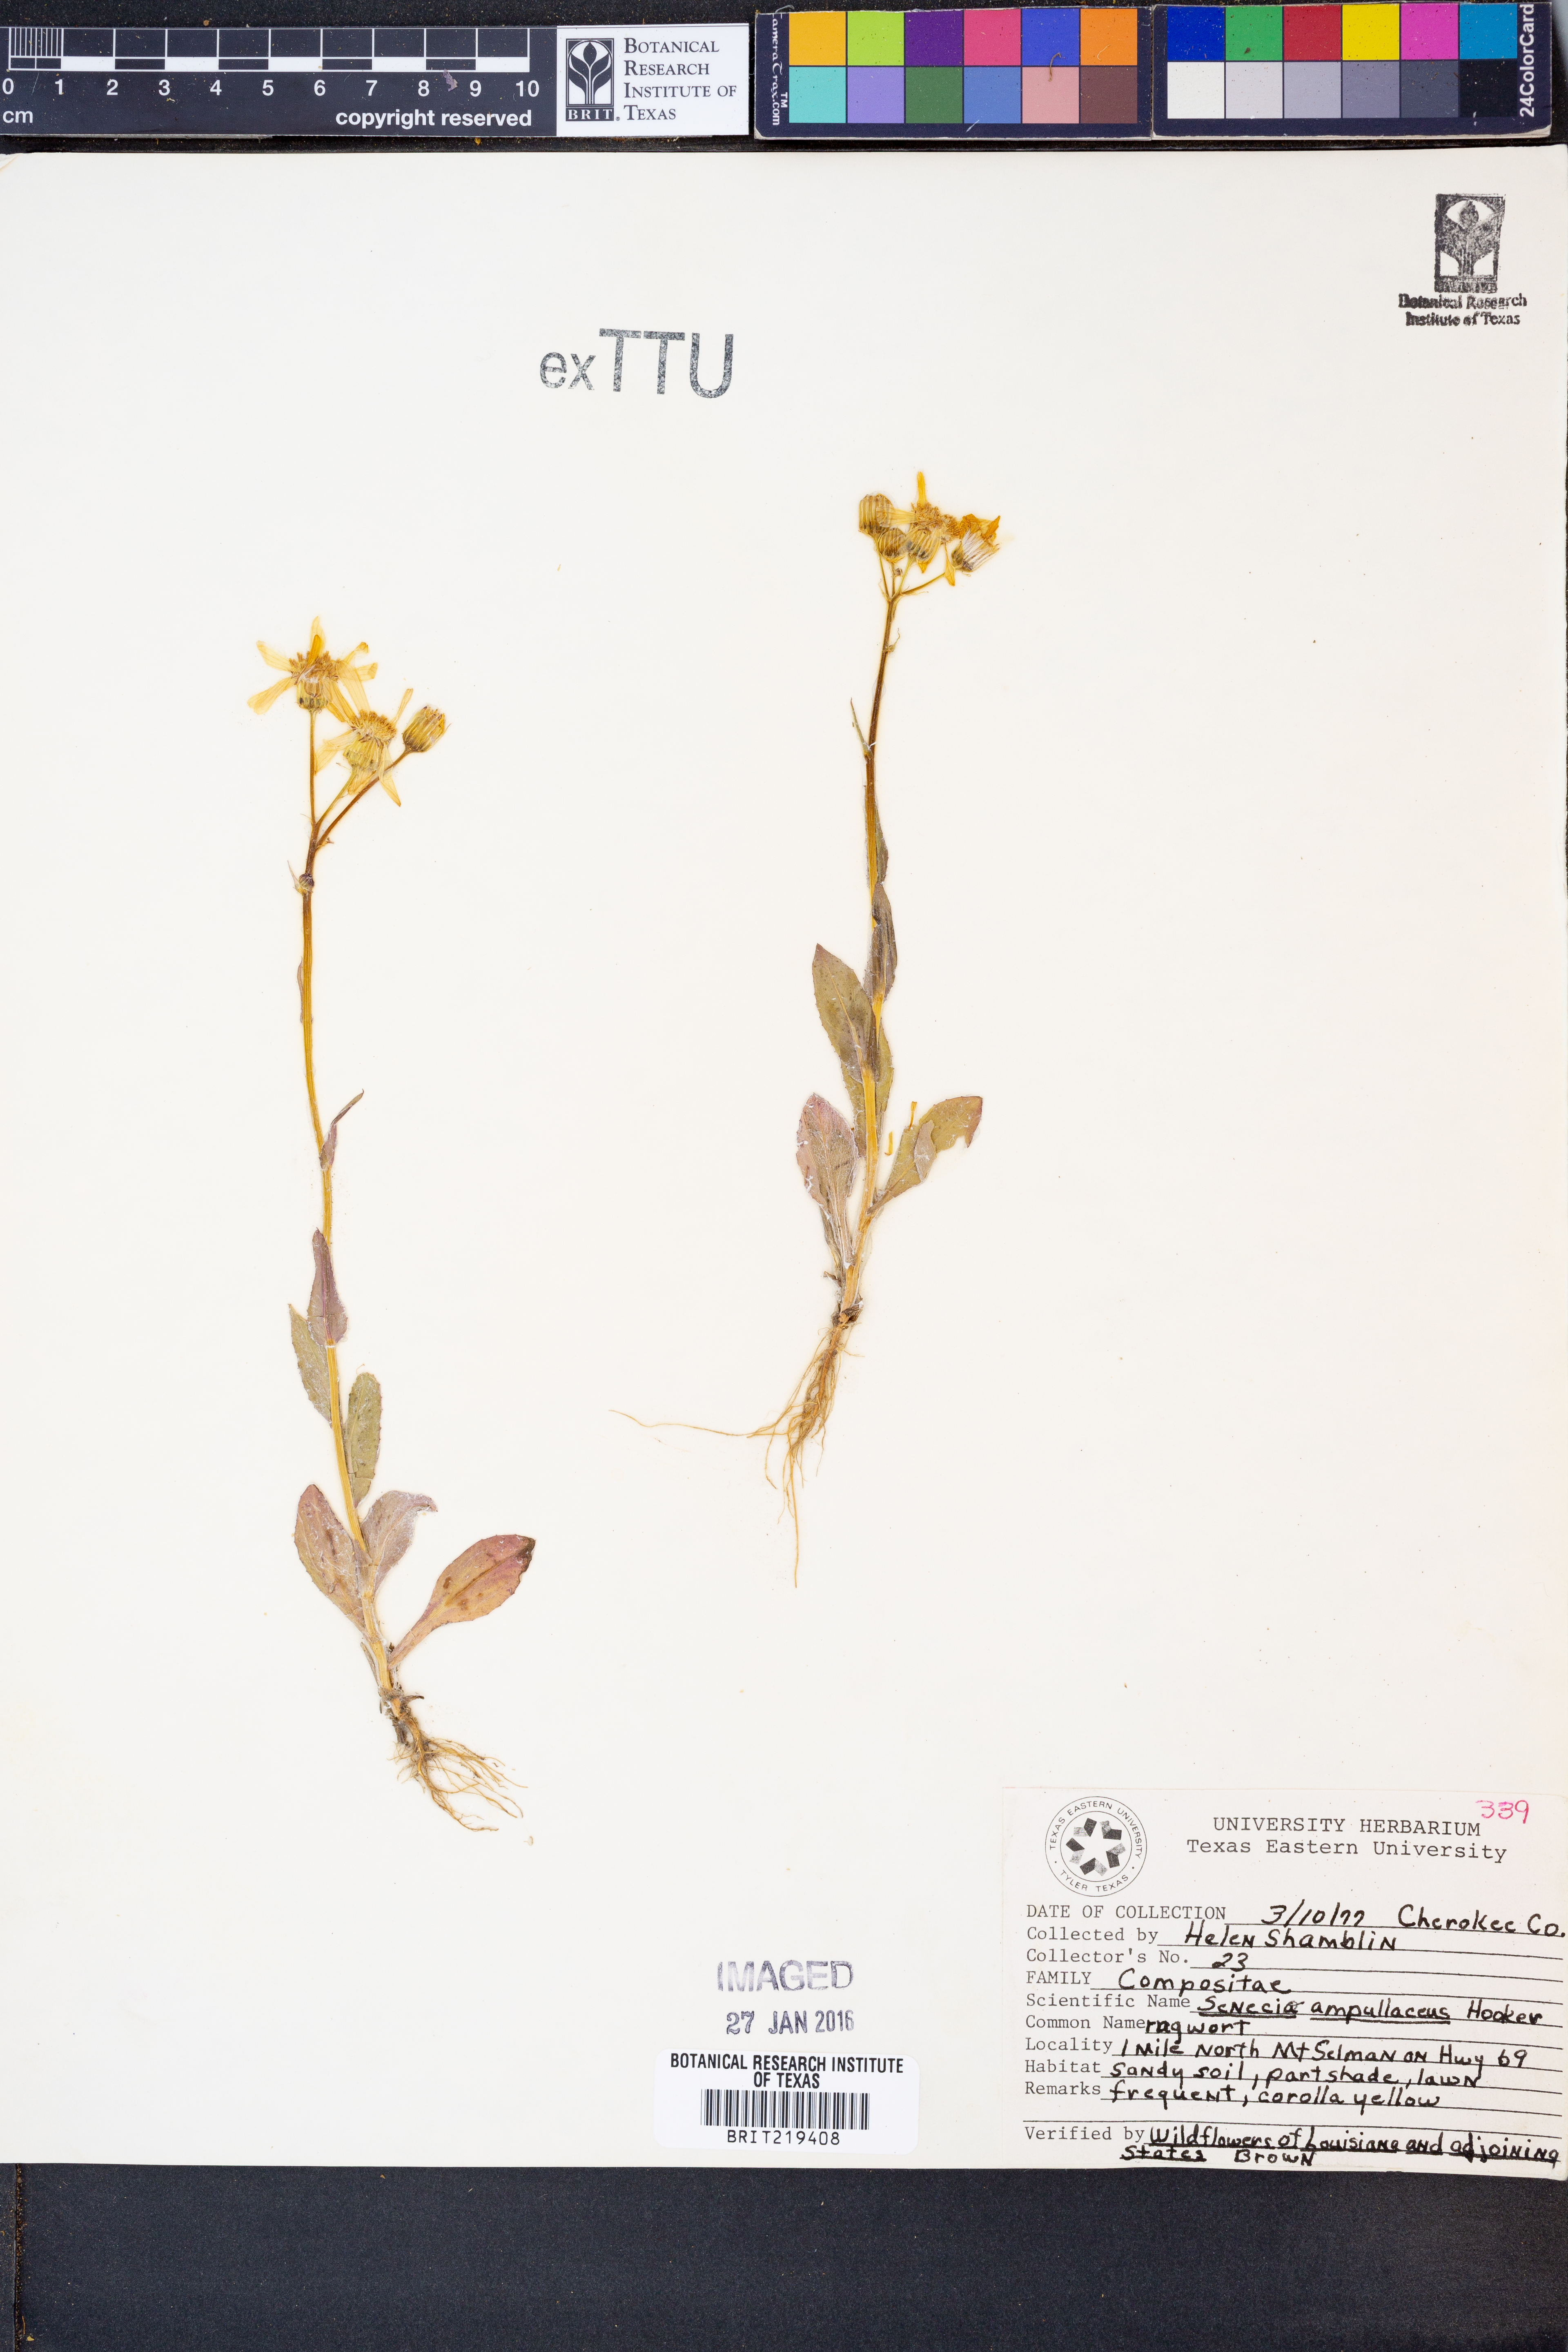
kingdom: Plantae
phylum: Tracheophyta
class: Magnoliopsida
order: Asterales
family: Asteraceae
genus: Senecio
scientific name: Senecio ampullaceus
